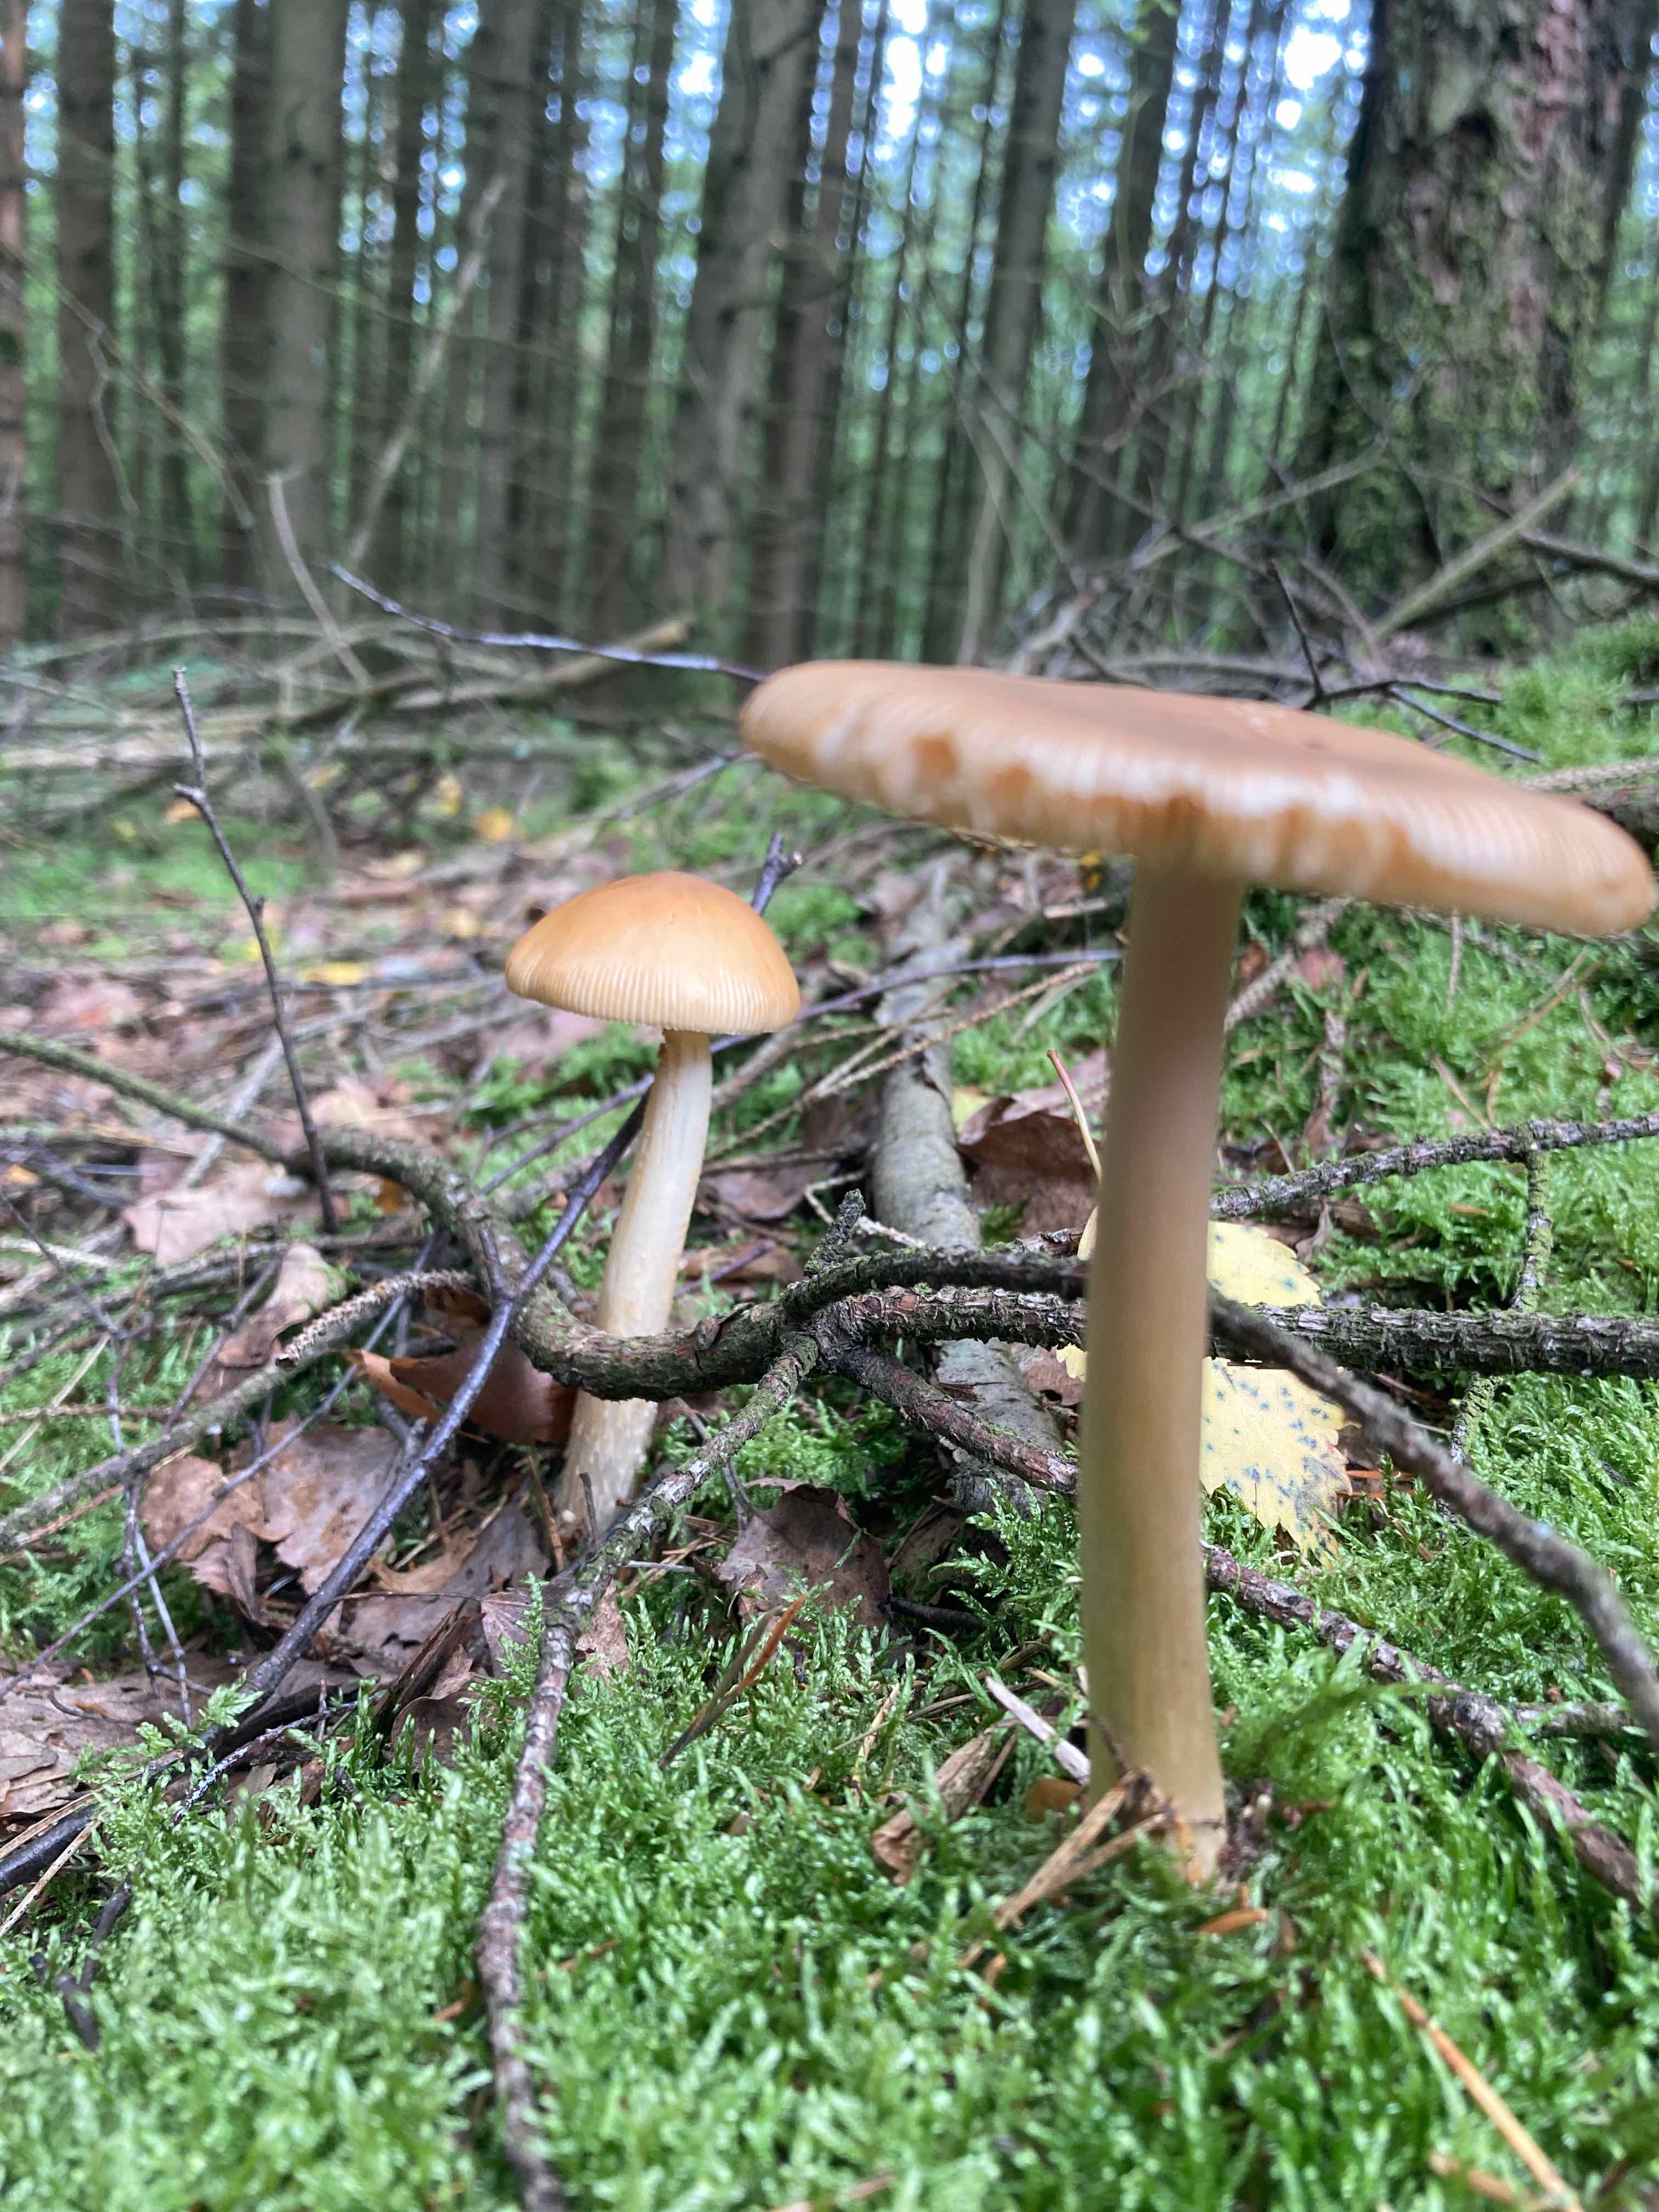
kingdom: Fungi
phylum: Basidiomycota
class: Agaricomycetes
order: Agaricales
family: Amanitaceae
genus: Amanita
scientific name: Amanita fulva
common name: brun kam-fluesvamp
